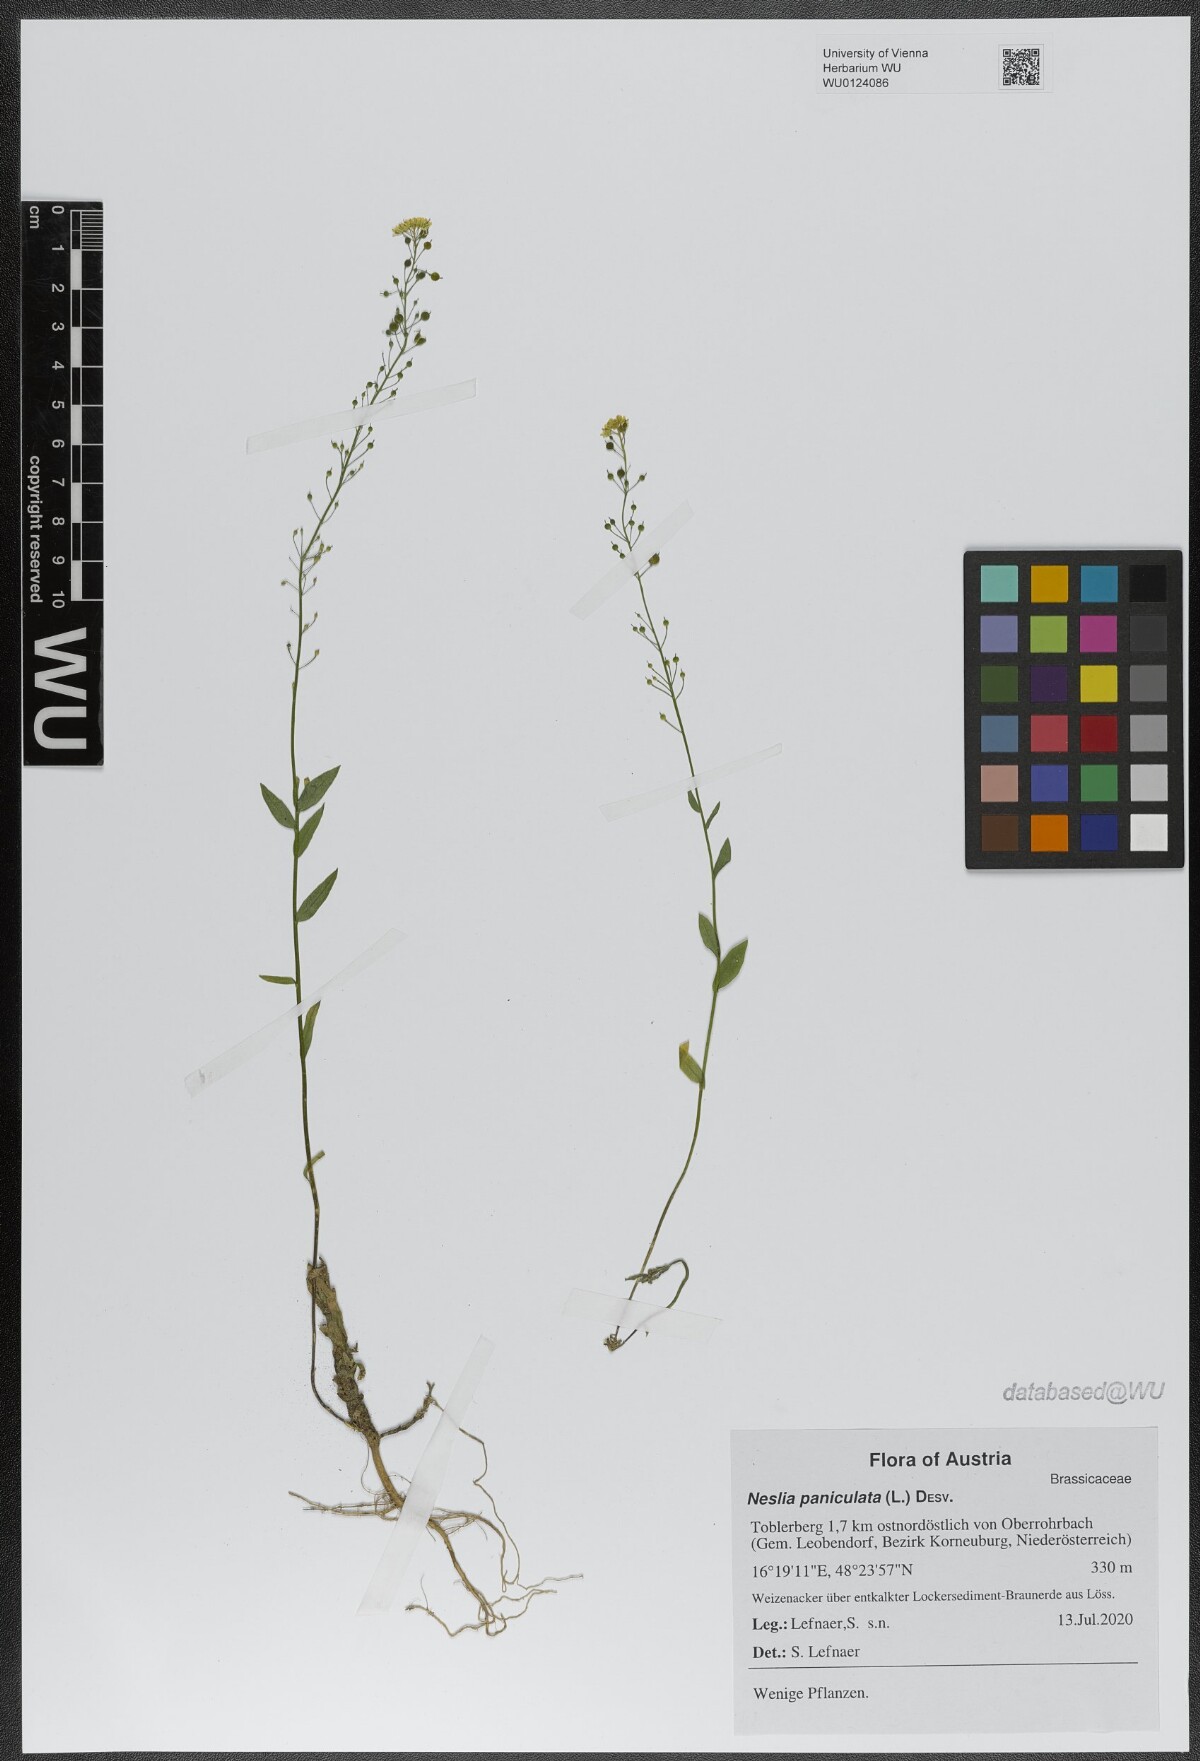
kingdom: Plantae
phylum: Tracheophyta
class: Magnoliopsida
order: Brassicales
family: Brassicaceae
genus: Neslia
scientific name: Neslia paniculata
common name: Ball mustard
